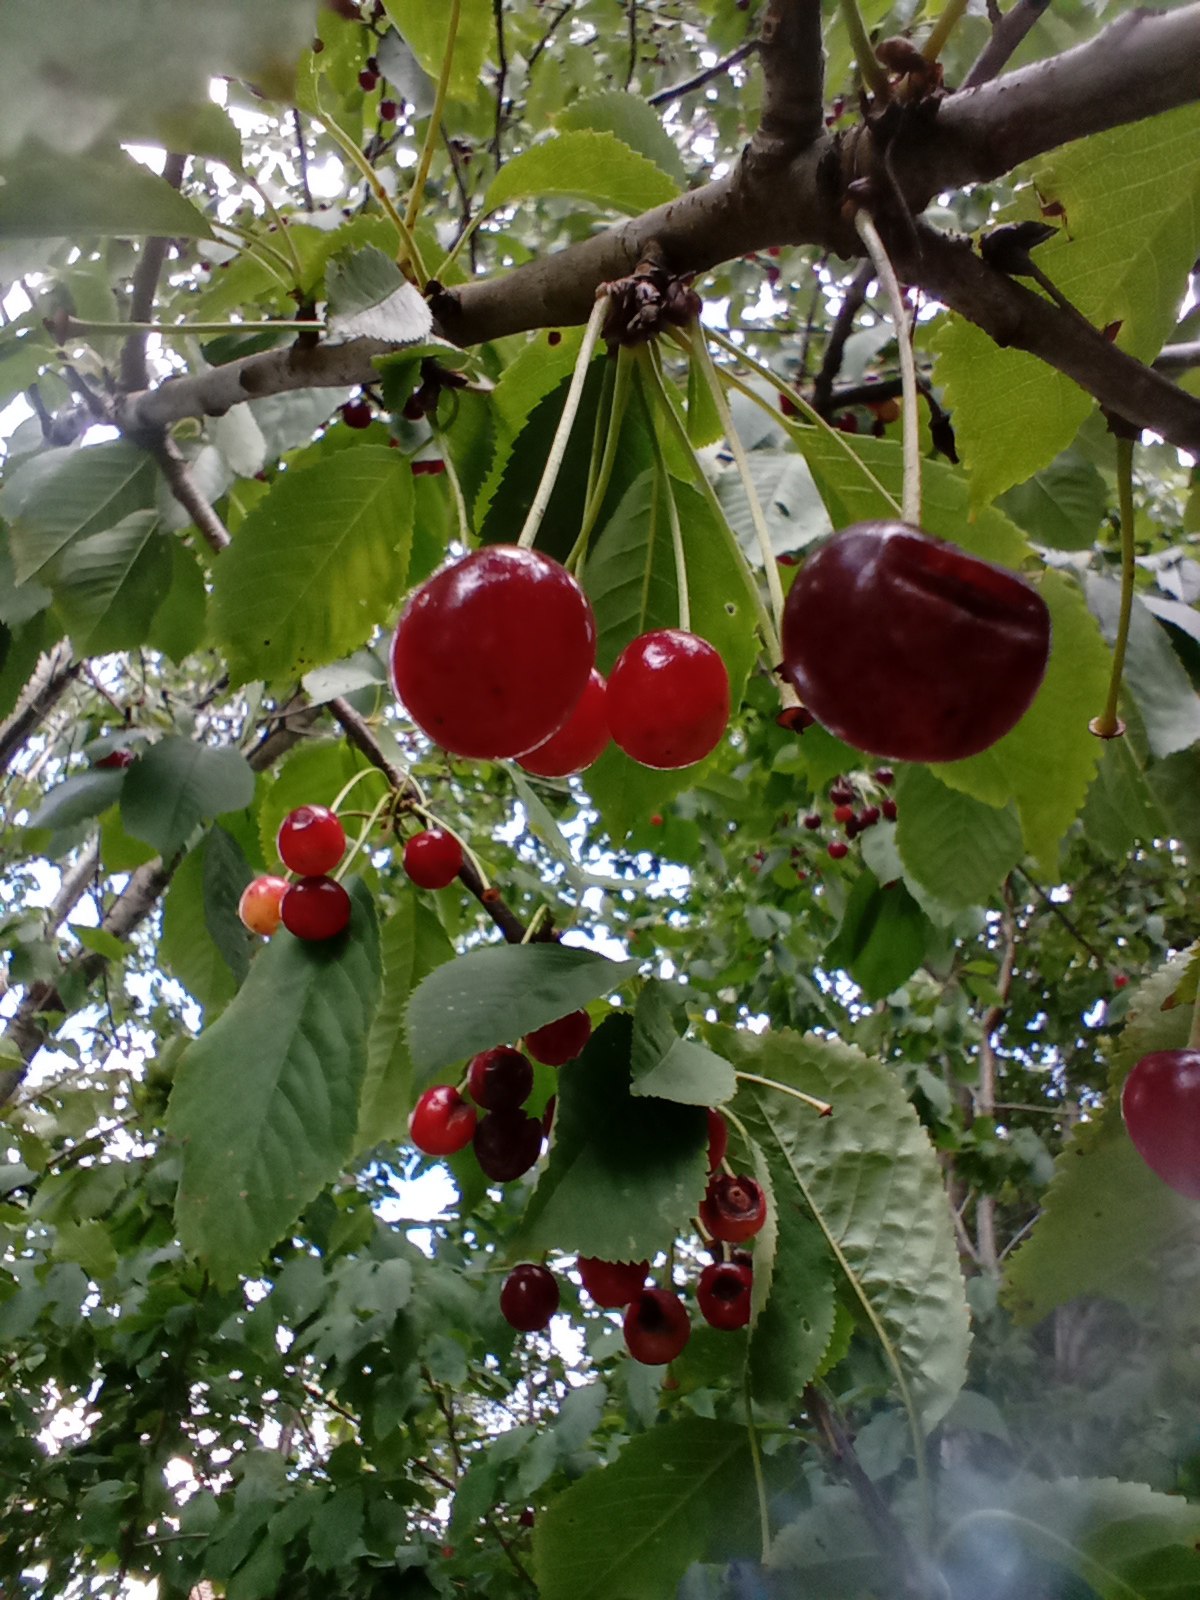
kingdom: Plantae
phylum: Tracheophyta
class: Magnoliopsida
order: Rosales
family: Rosaceae
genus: Prunus
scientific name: Prunus avium
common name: Fugle-kirsebær
